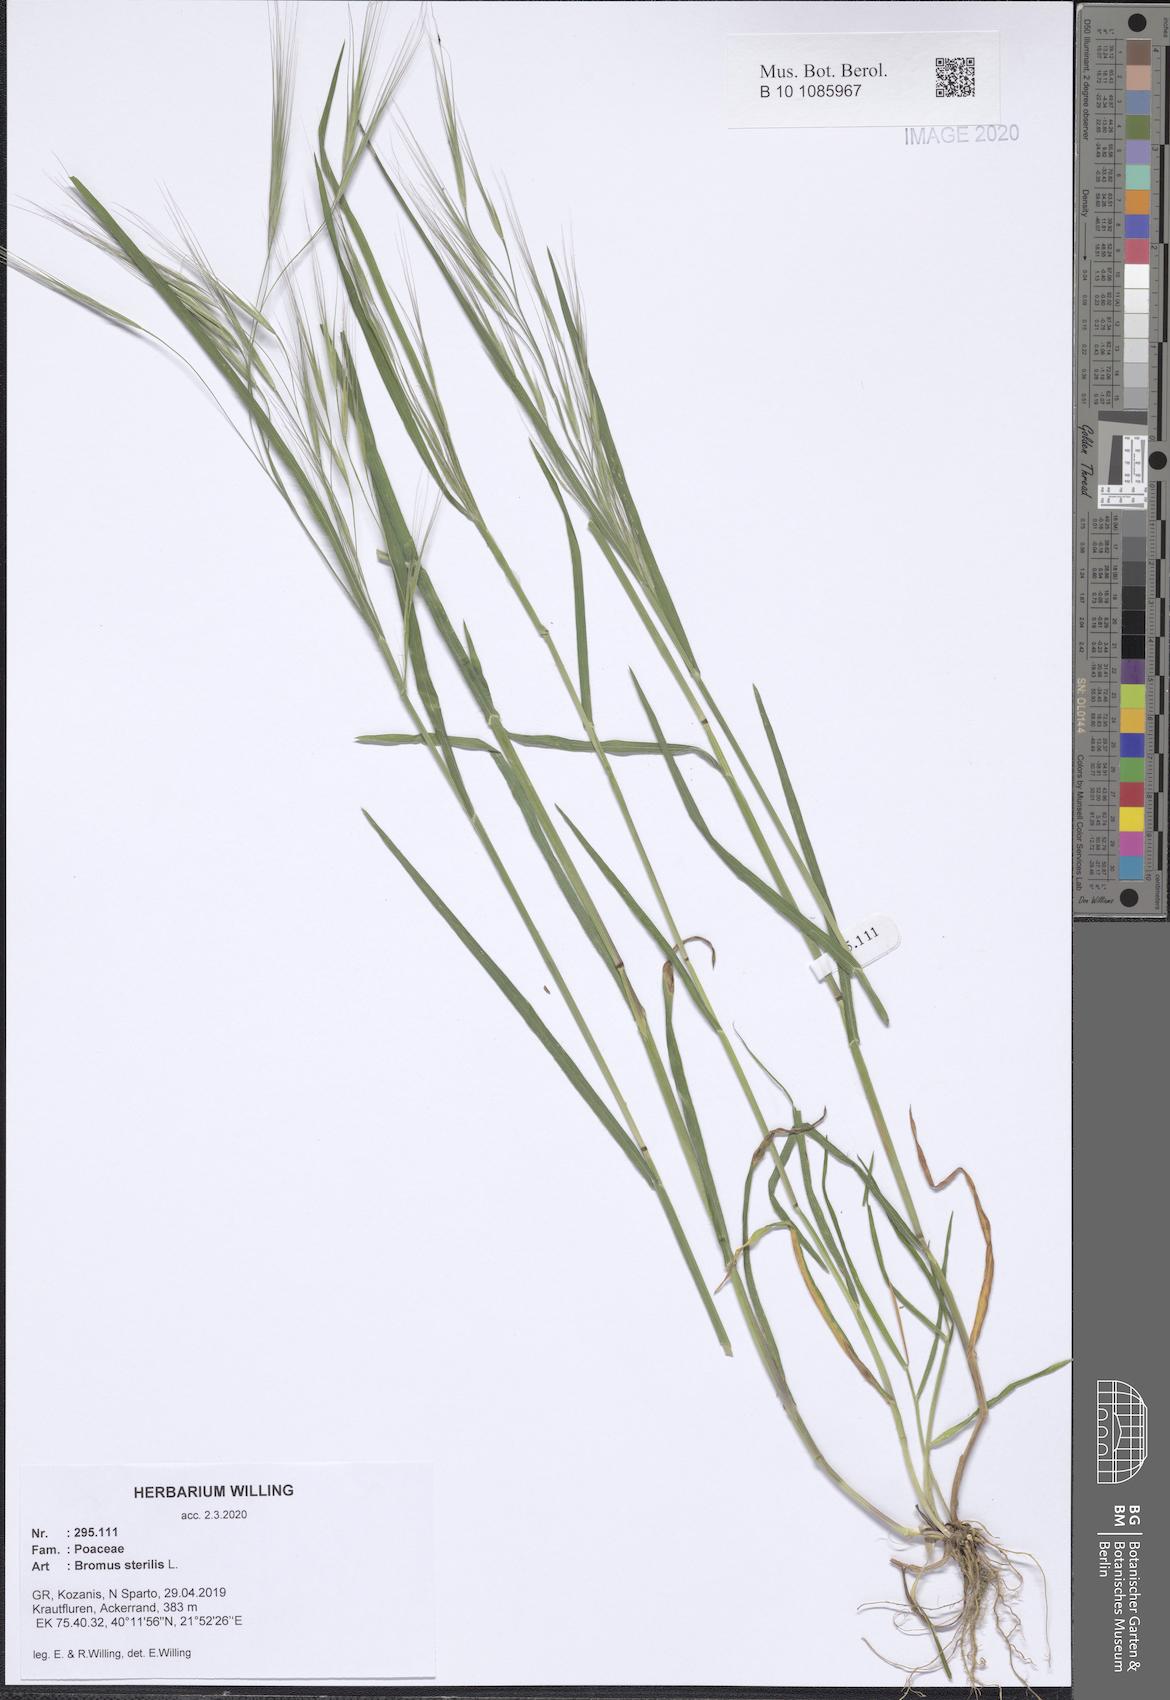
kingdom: Plantae
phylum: Tracheophyta
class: Liliopsida
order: Poales
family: Poaceae
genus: Bromus
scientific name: Bromus sterilis
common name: Poverty brome
